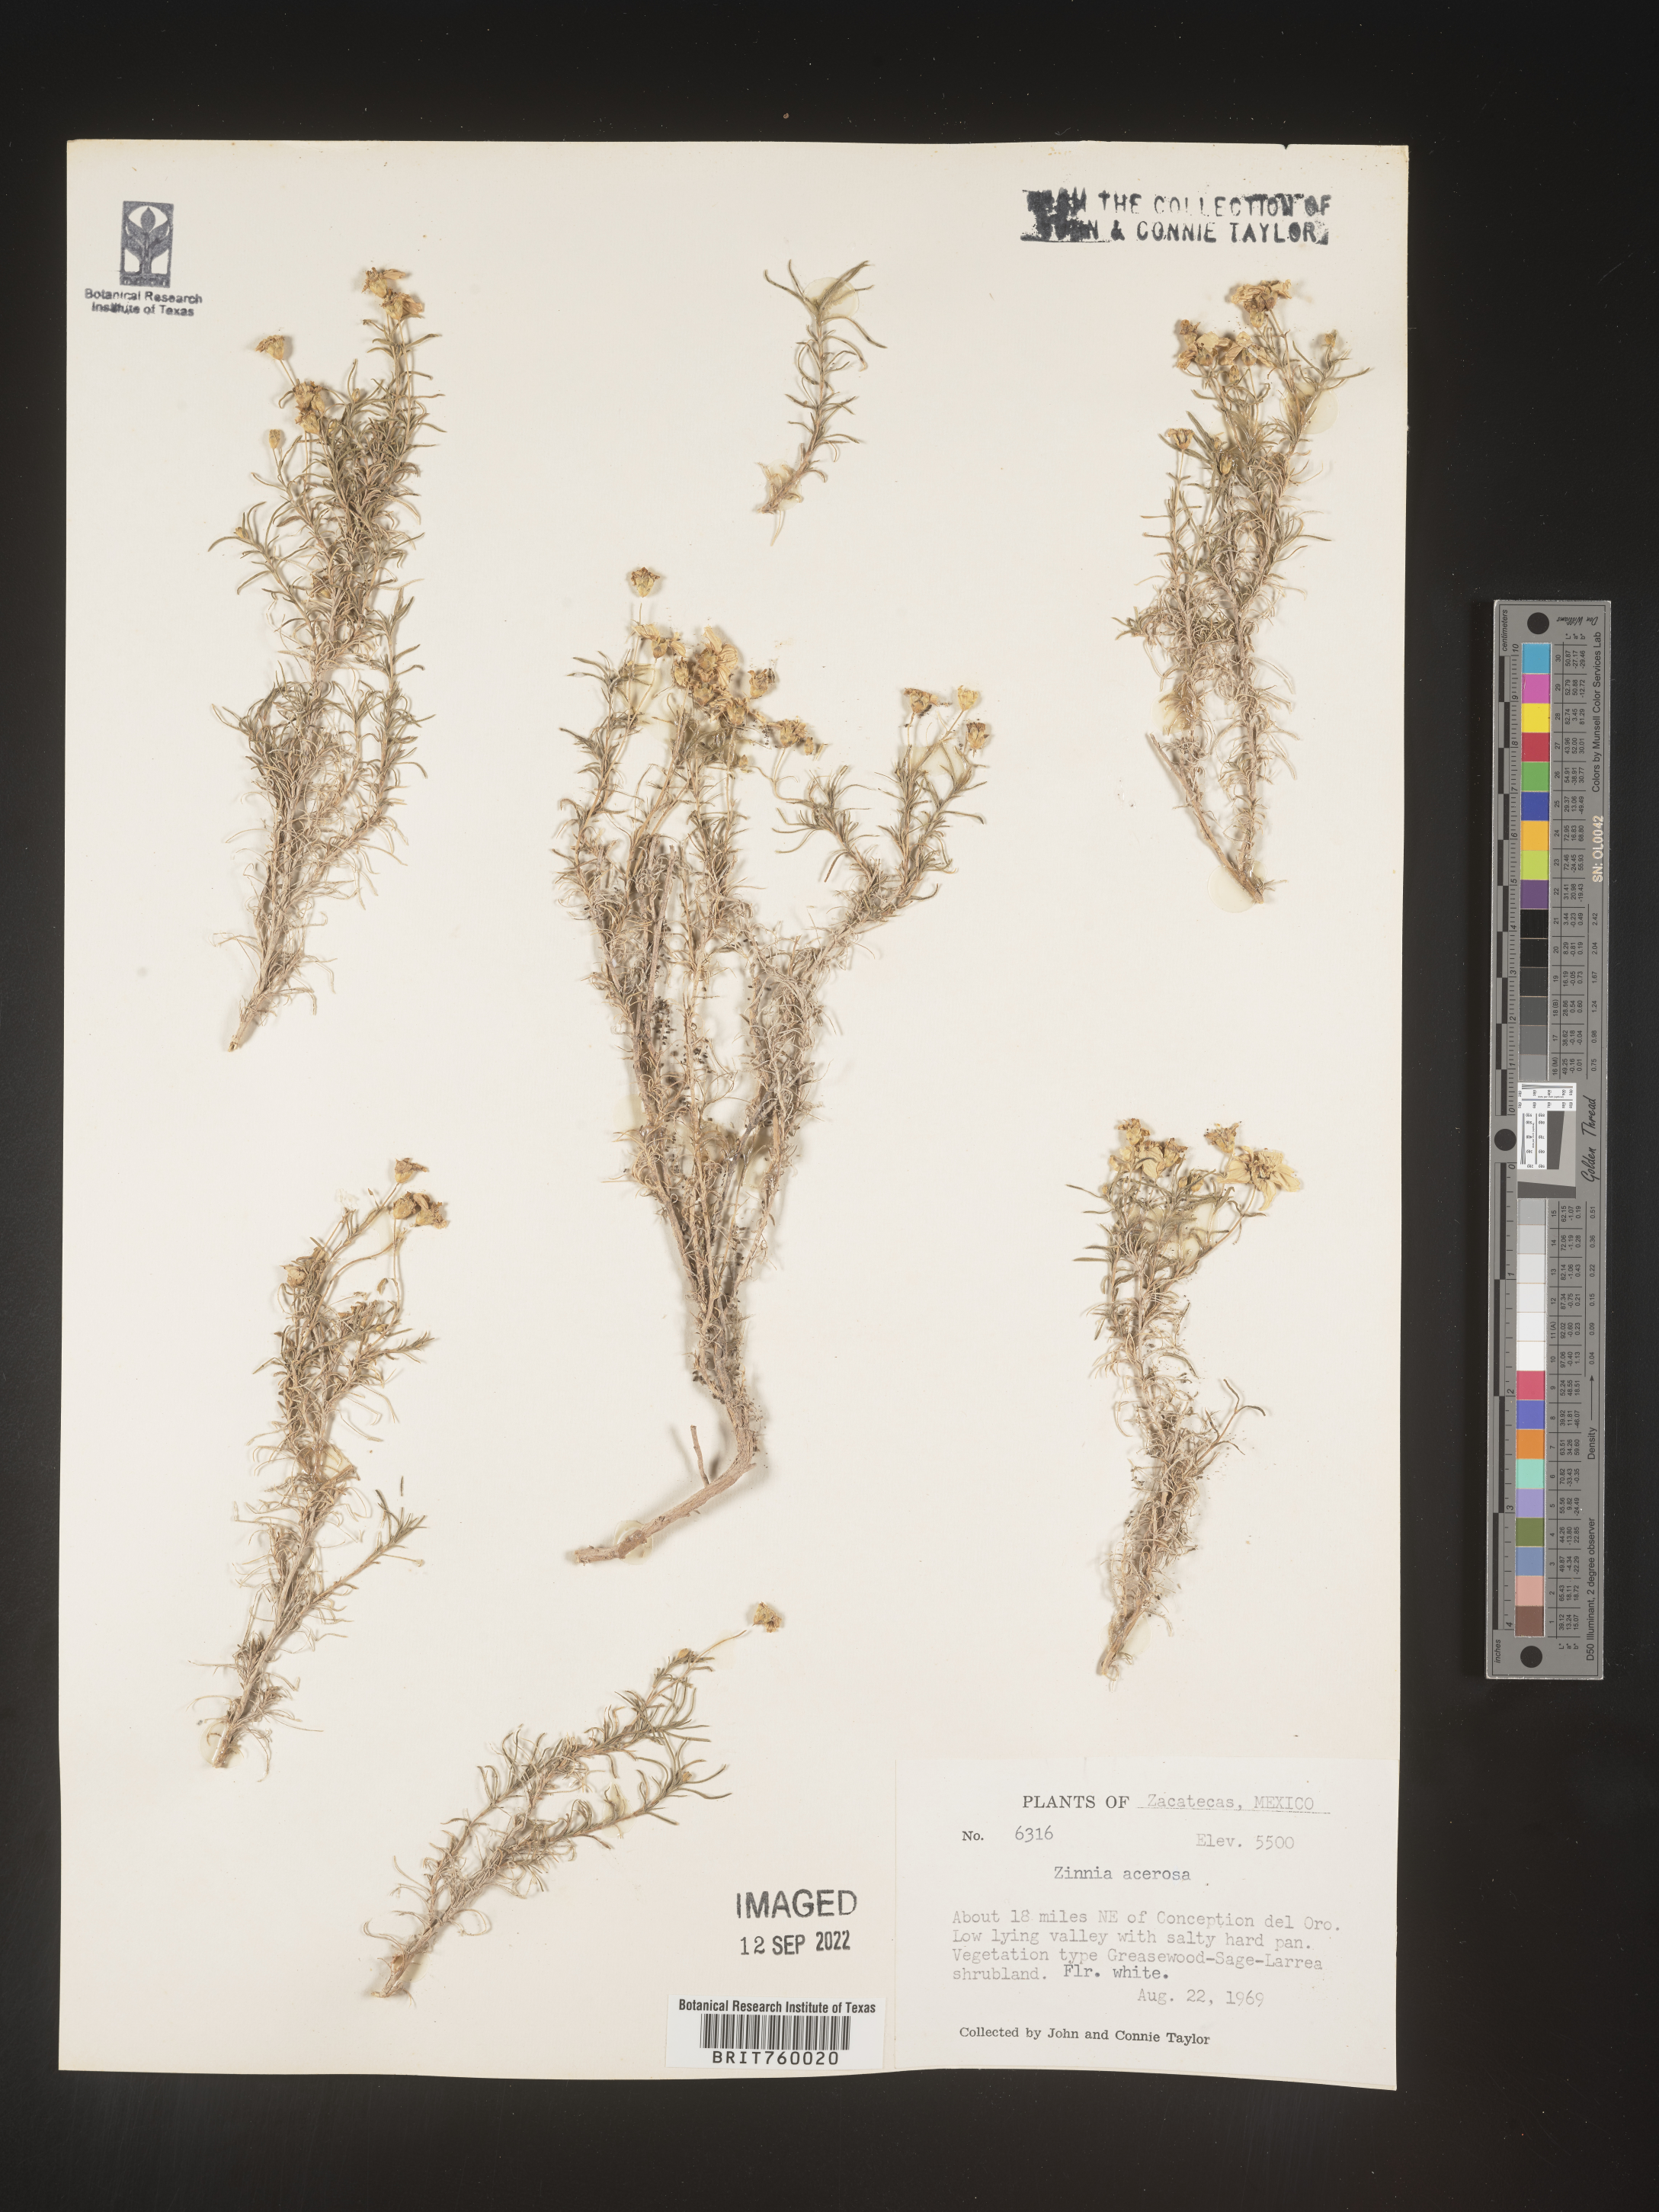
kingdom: Plantae
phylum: Tracheophyta
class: Magnoliopsida
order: Asterales
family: Asteraceae
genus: Zinnia
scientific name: Zinnia
